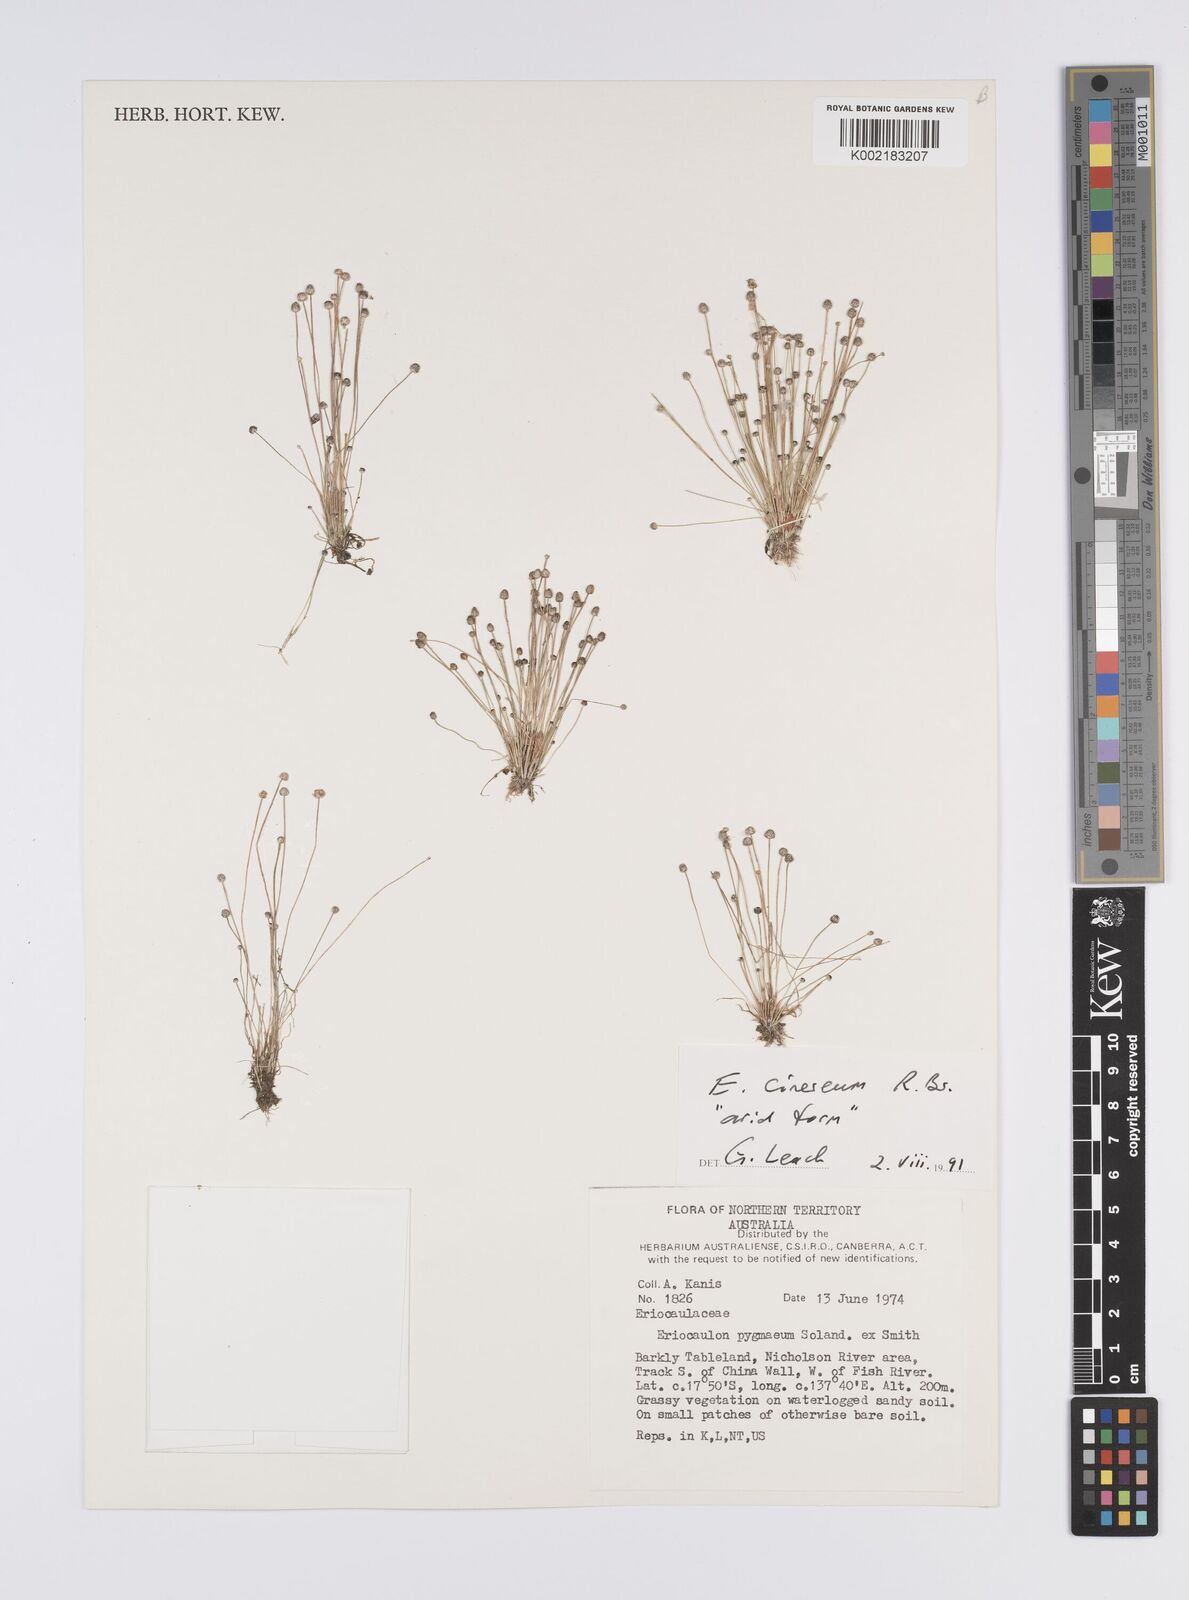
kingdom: Plantae
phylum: Tracheophyta
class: Liliopsida
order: Poales
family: Eriocaulaceae
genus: Eriocaulon
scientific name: Eriocaulon cinereum
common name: Ashy pipewort
